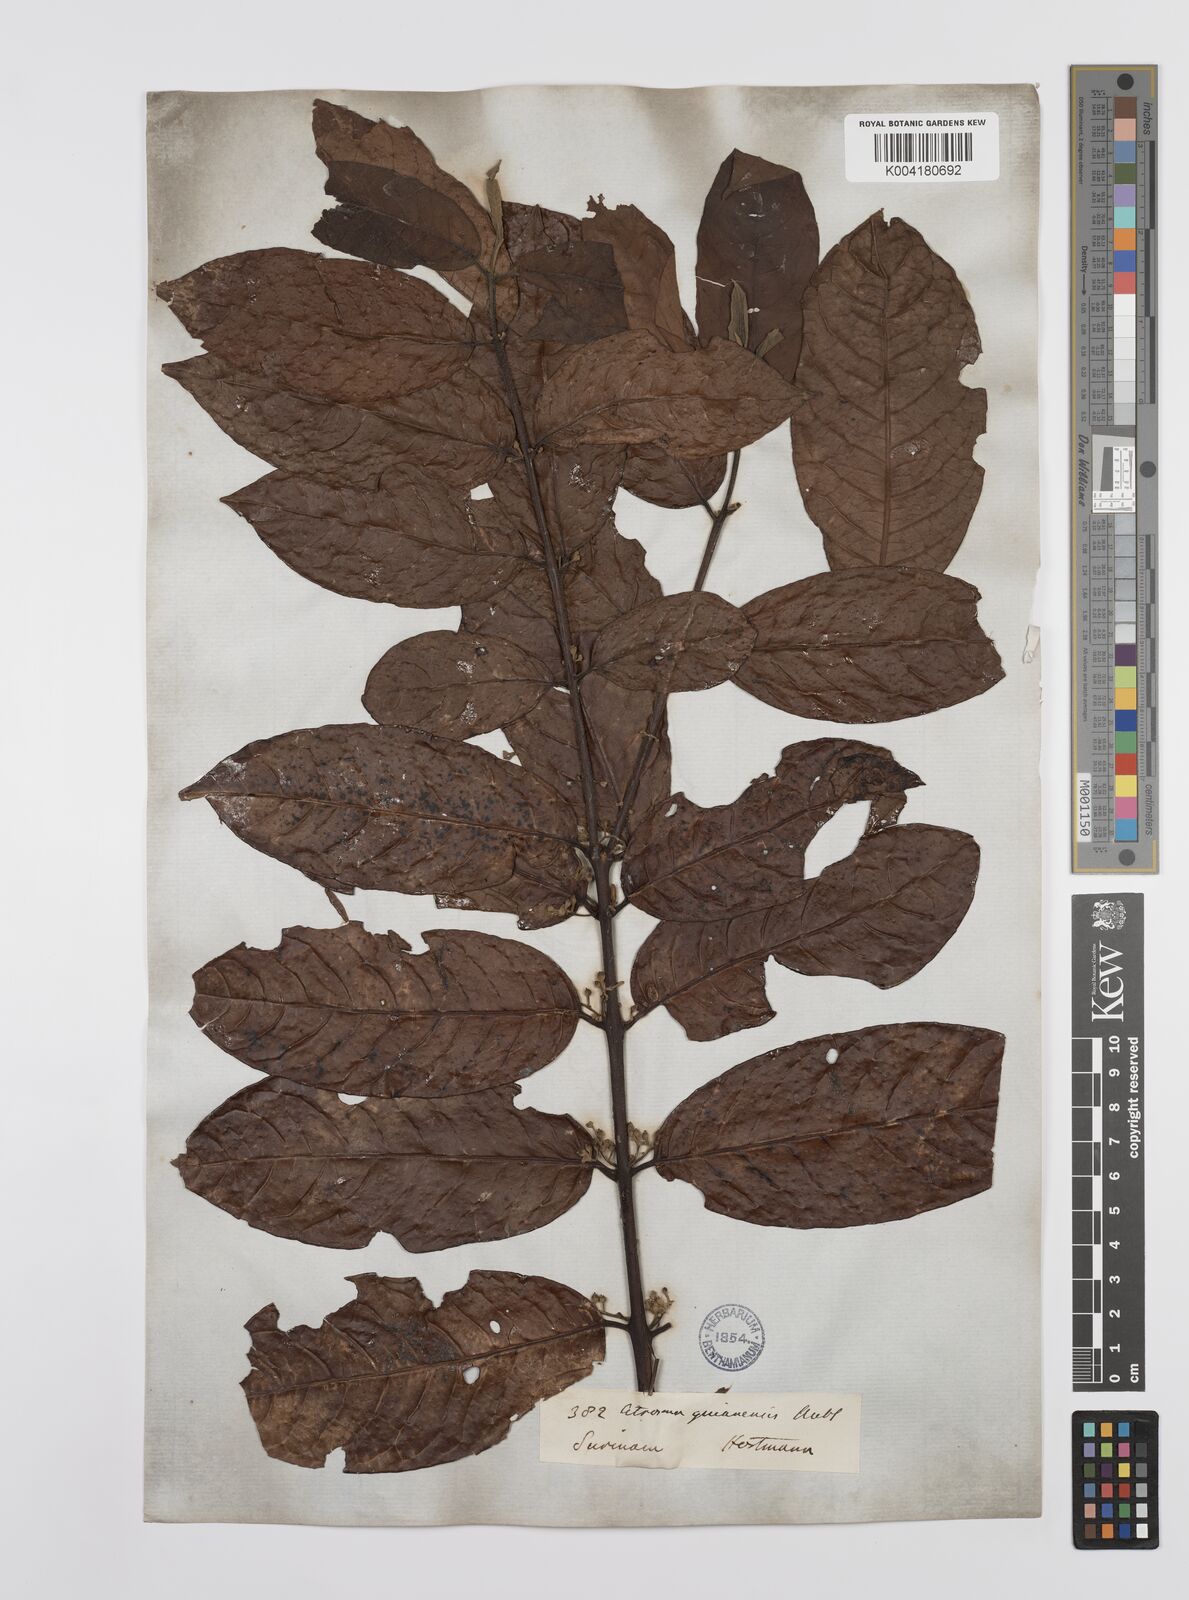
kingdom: Plantae
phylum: Tracheophyta
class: Magnoliopsida
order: Laurales
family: Siparunaceae
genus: Siparuna
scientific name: Siparuna guianensis
